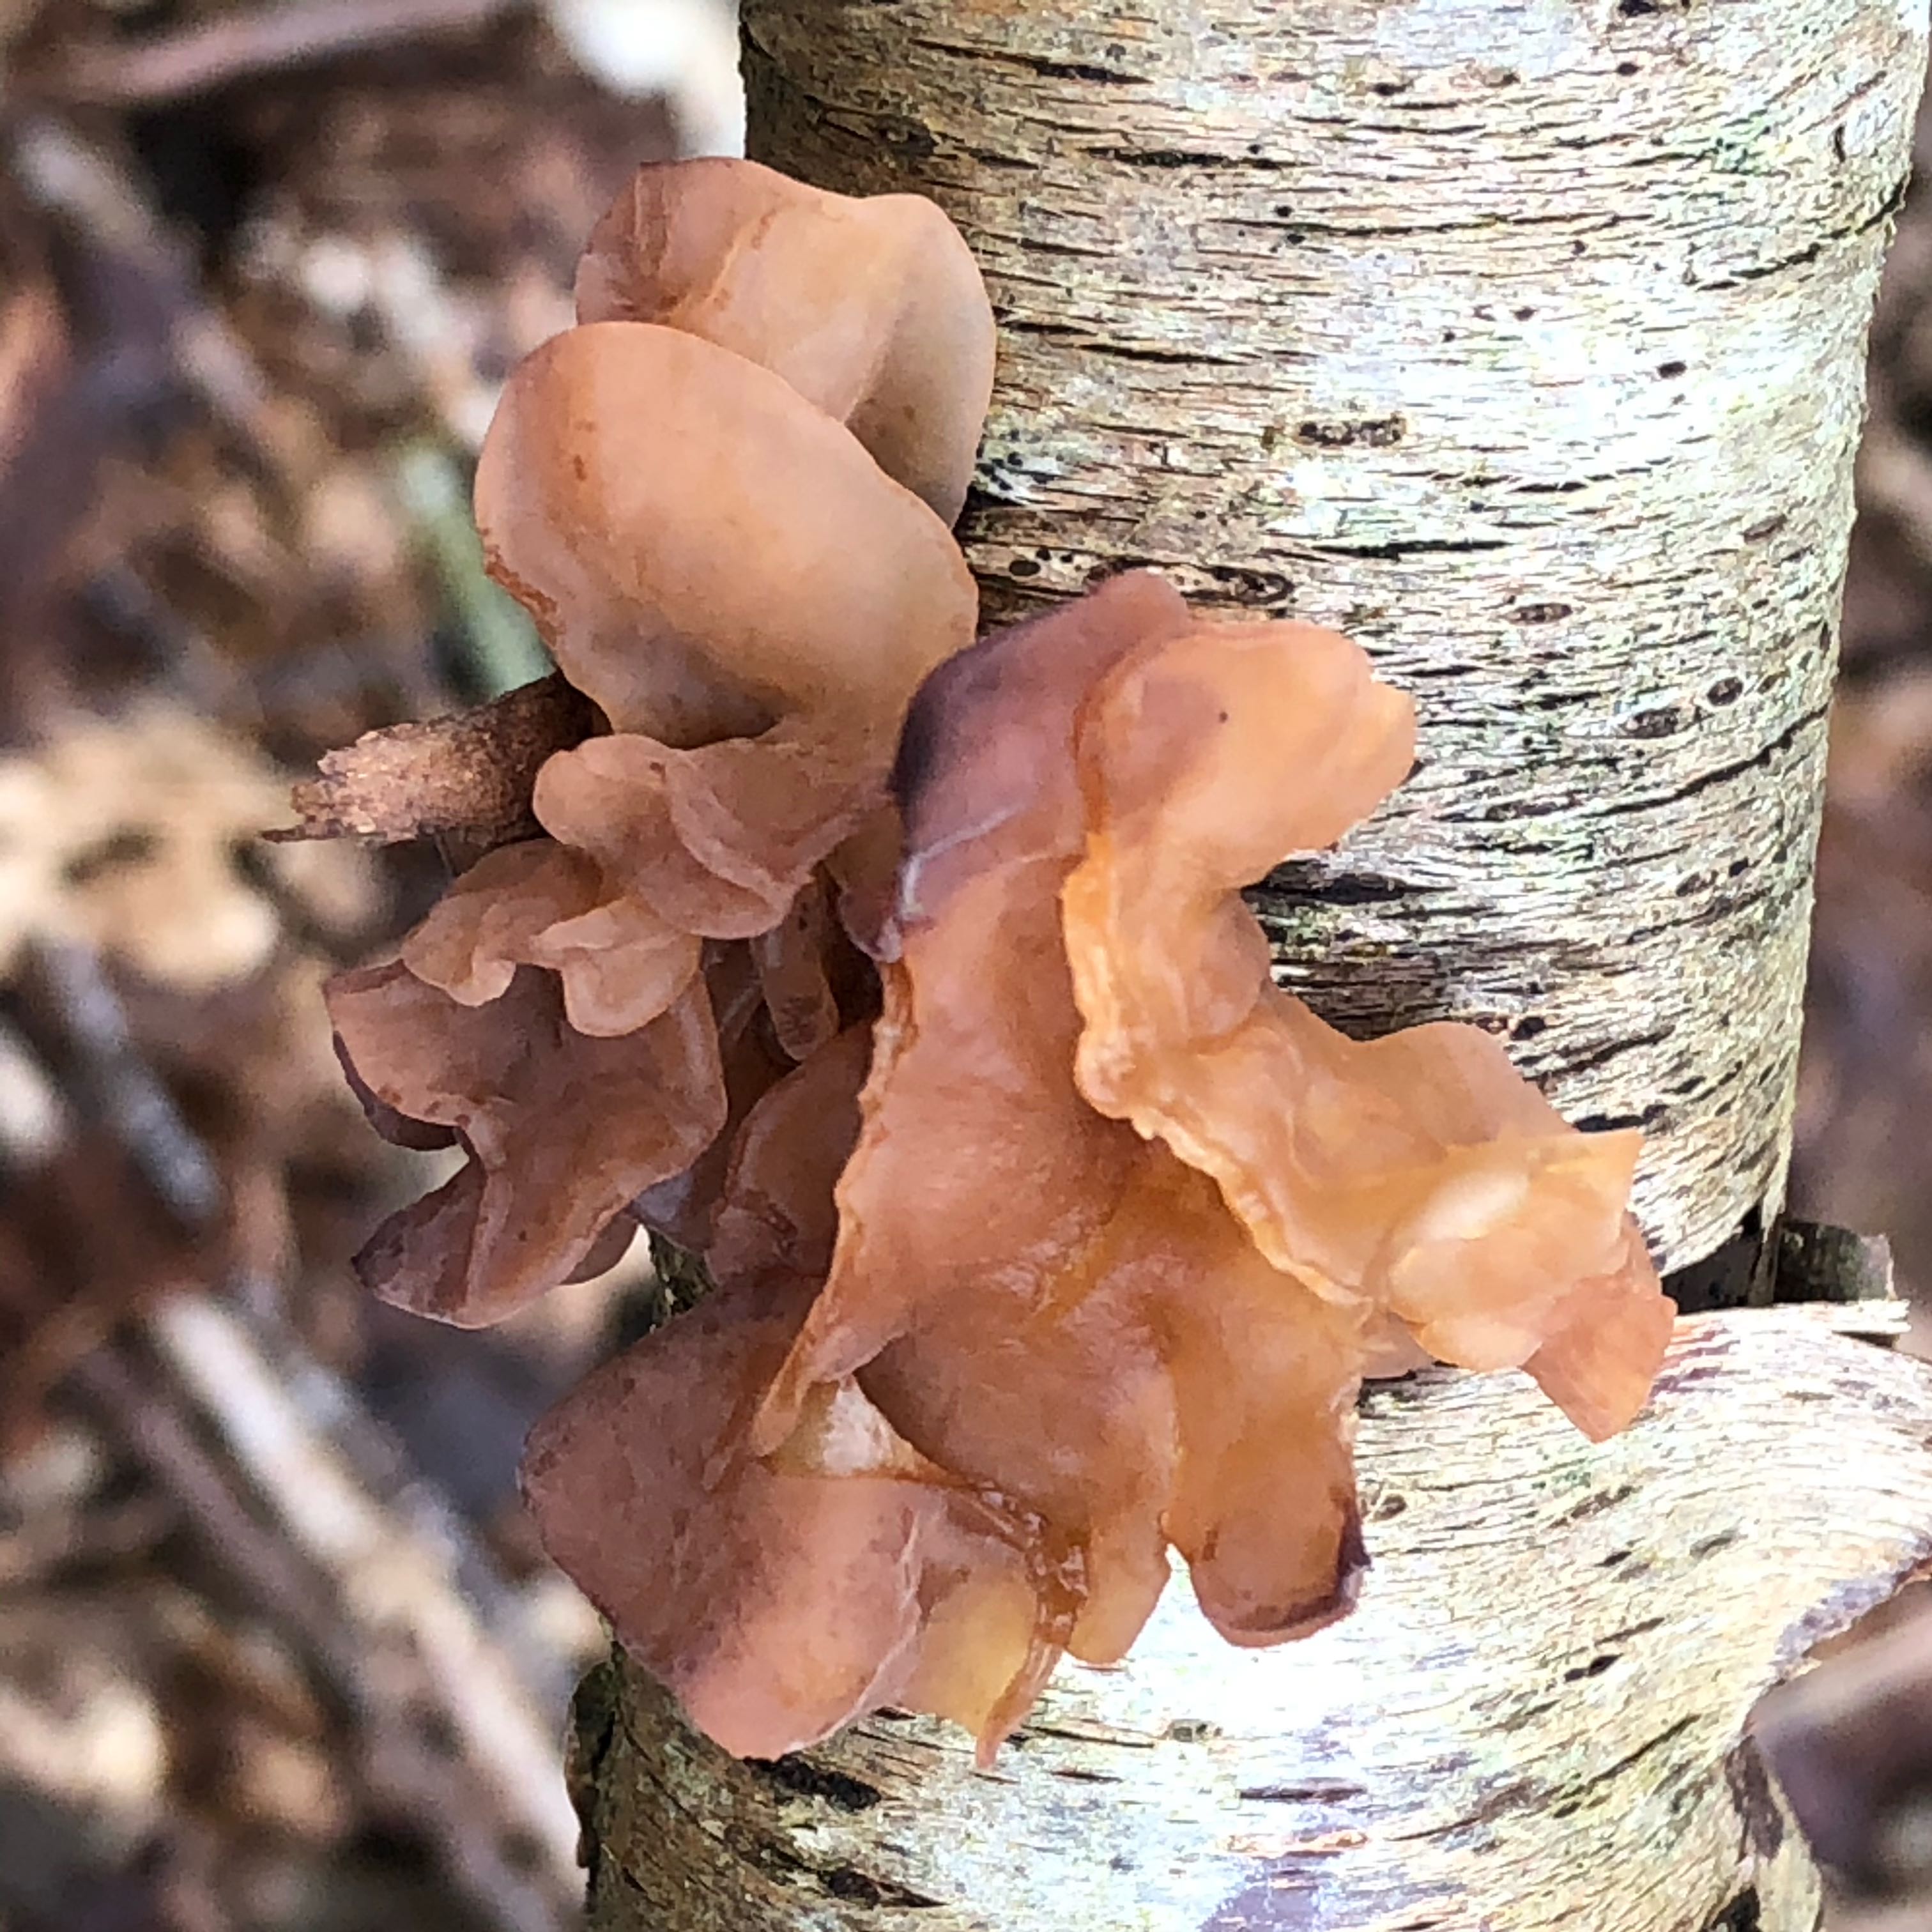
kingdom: Fungi
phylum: Basidiomycota
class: Tremellomycetes
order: Tremellales
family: Tremellaceae
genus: Phaeotremella
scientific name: Phaeotremella frondosa
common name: kæmpe-bævresvamp
